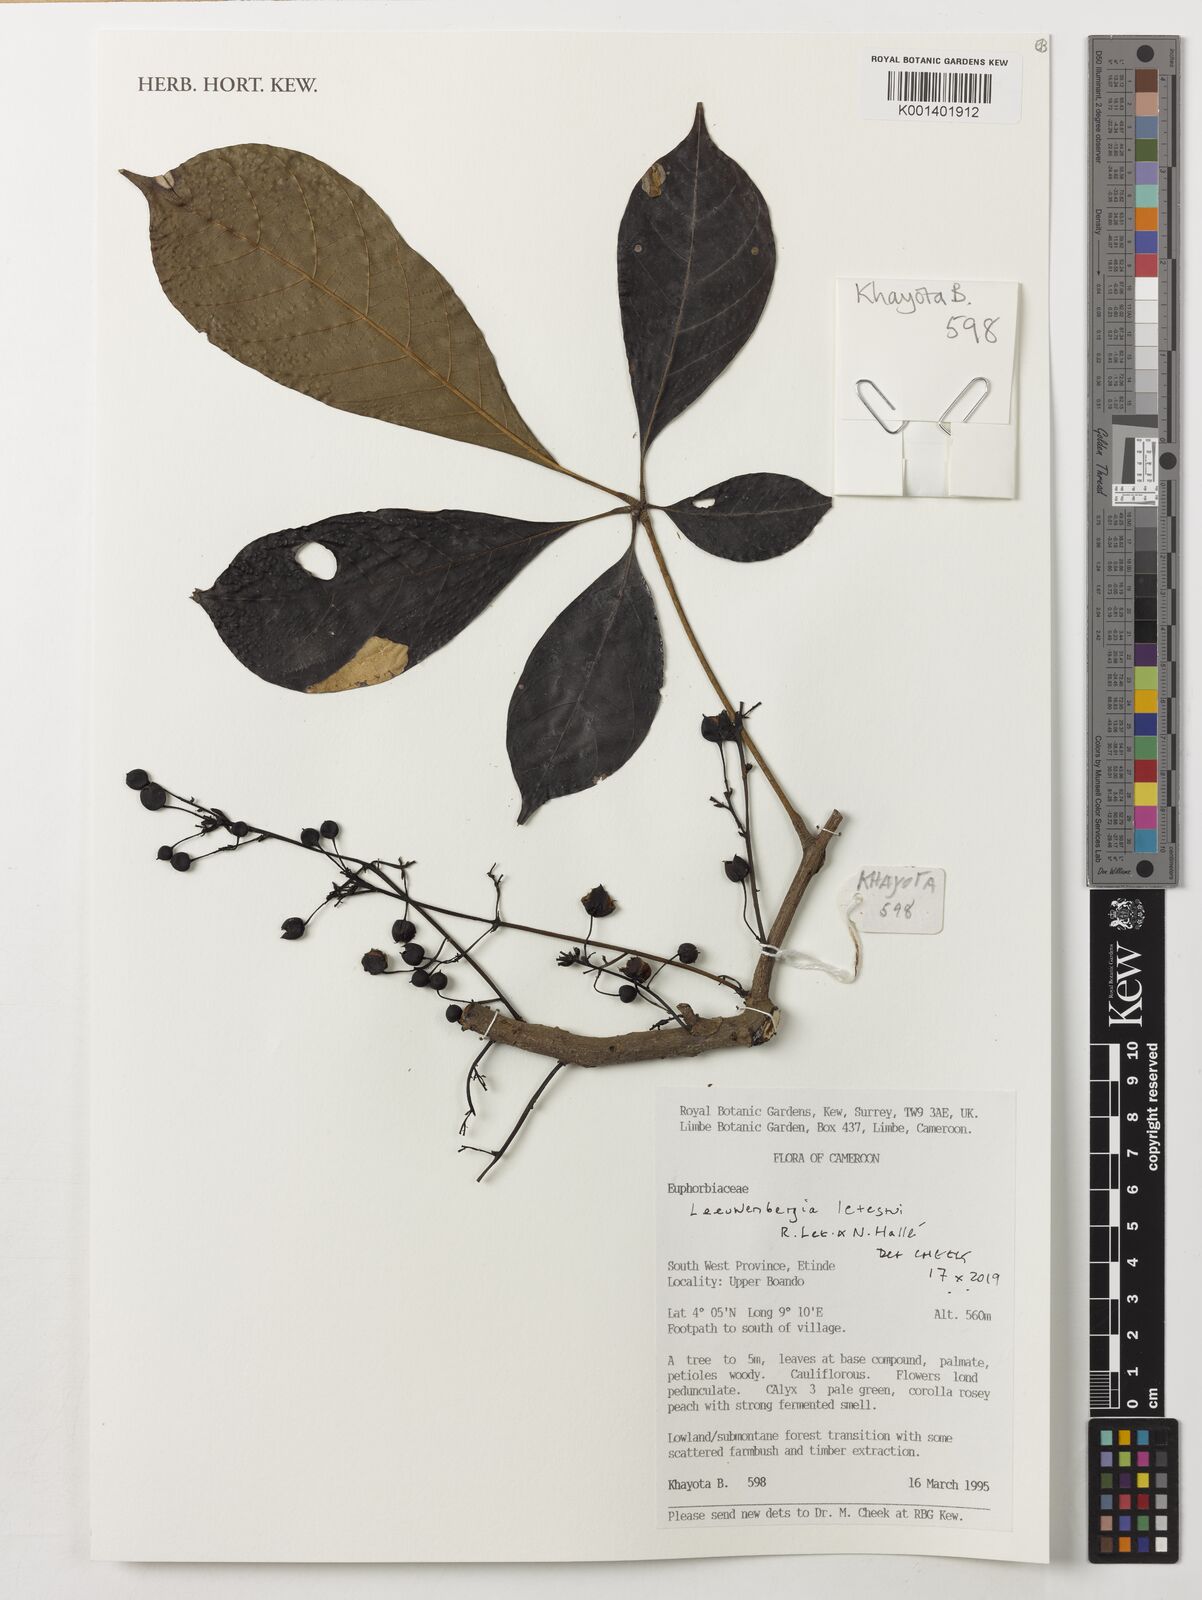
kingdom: Plantae
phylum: Tracheophyta
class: Magnoliopsida
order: Malpighiales
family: Euphorbiaceae
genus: Leeuwenbergia
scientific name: Leeuwenbergia letestui
